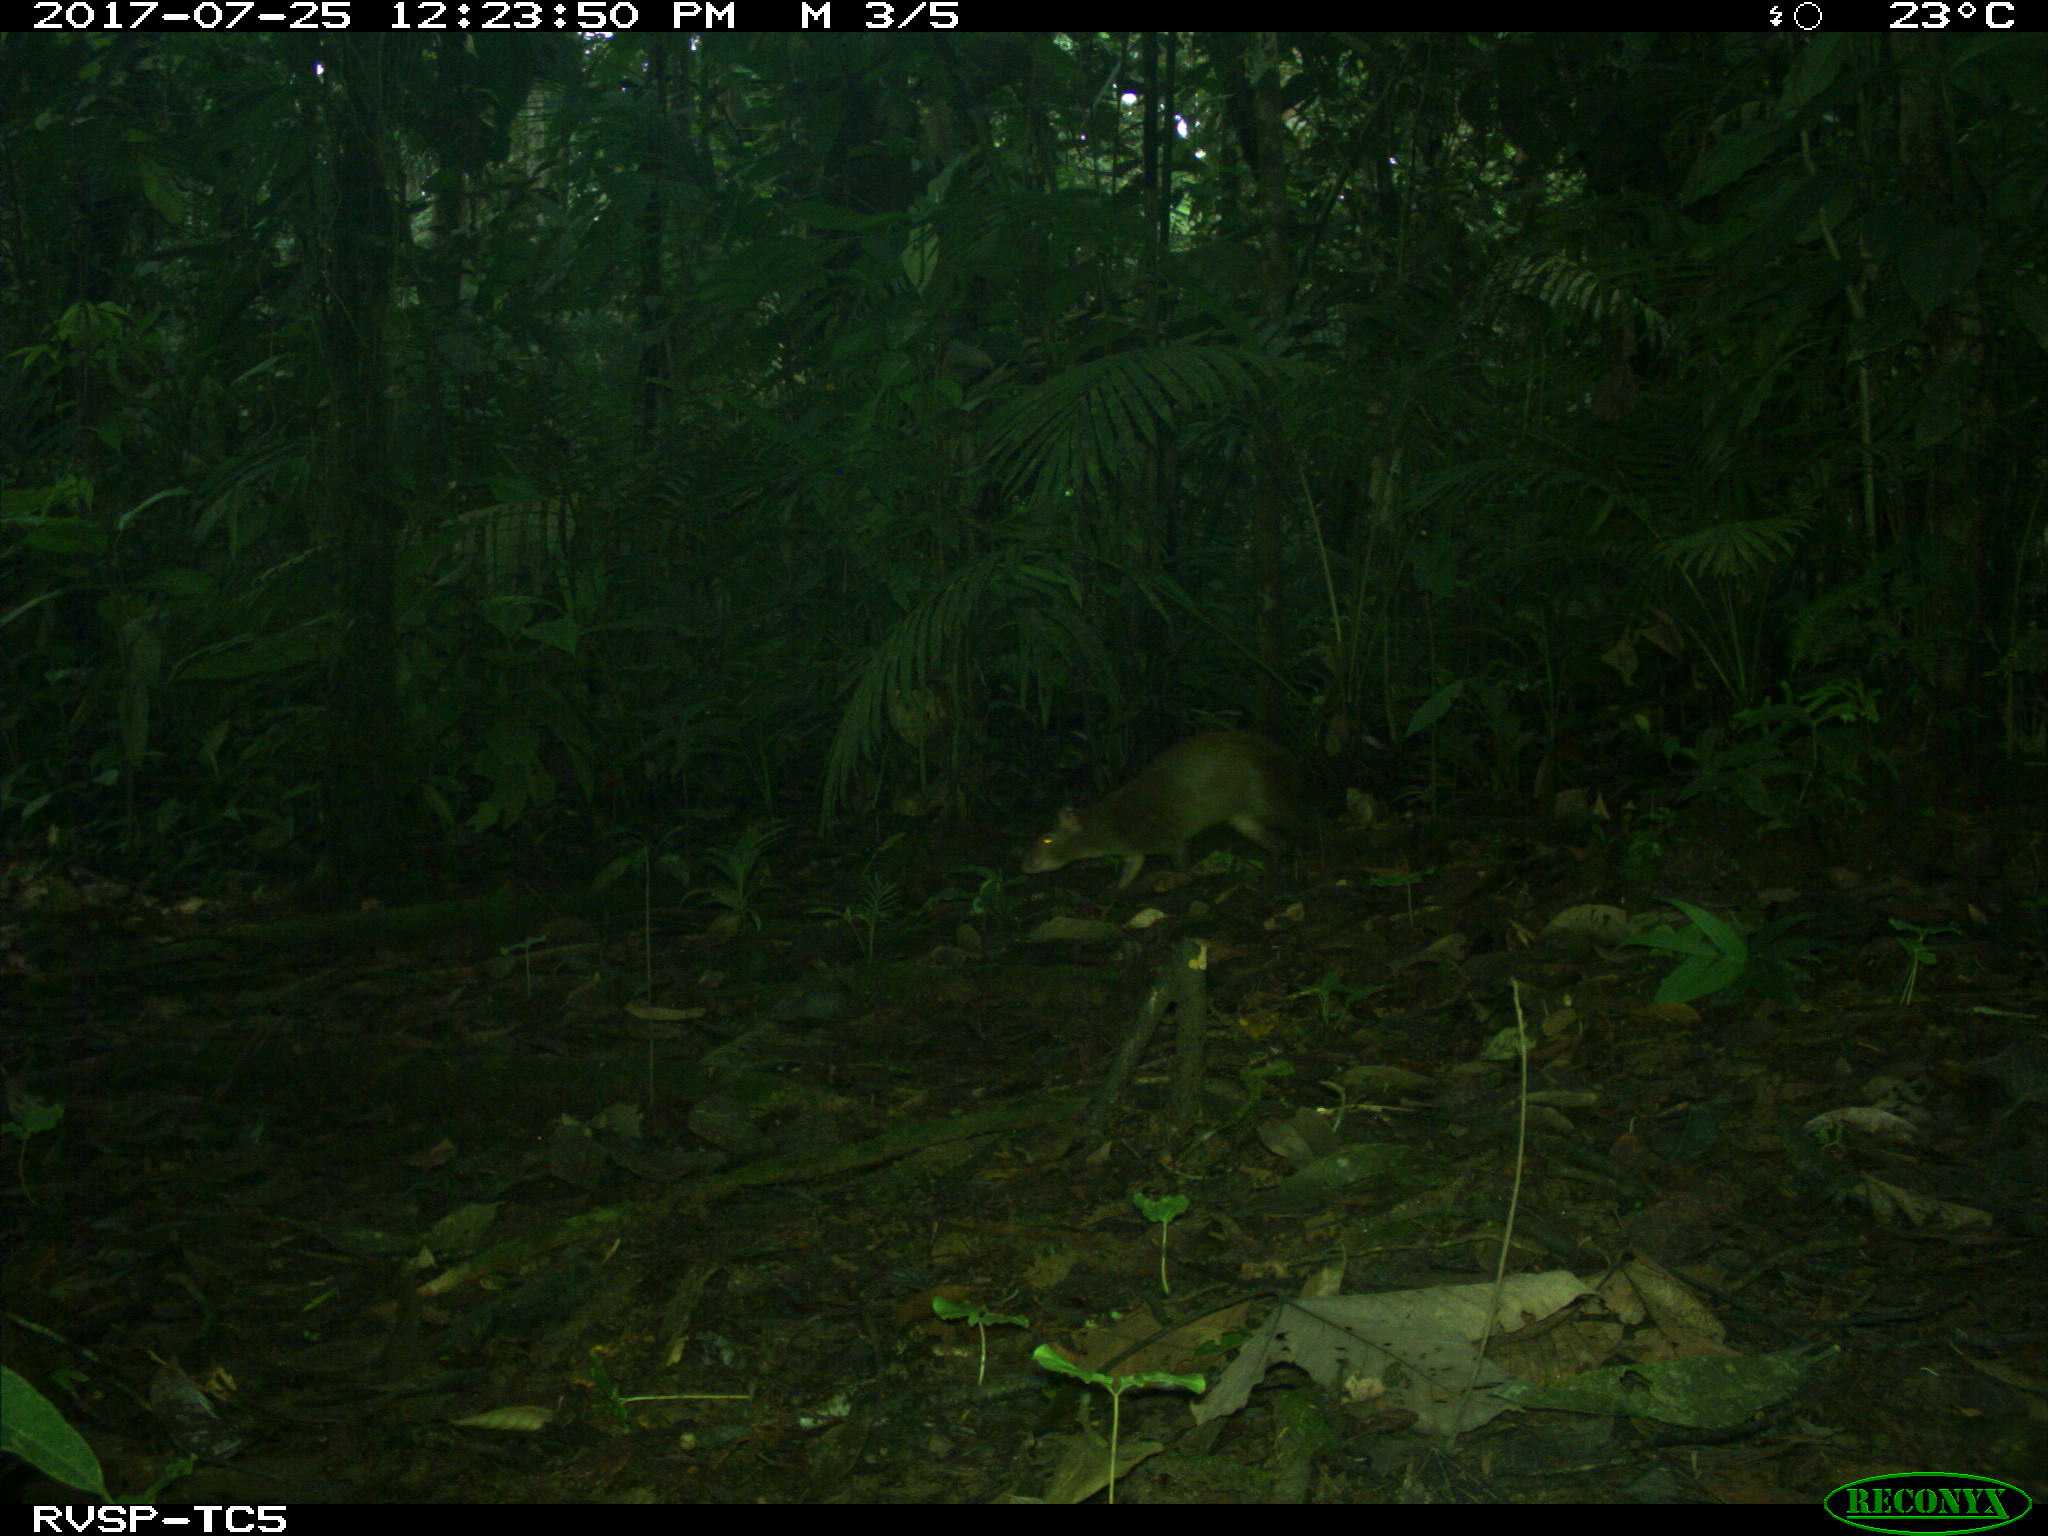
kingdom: Animalia
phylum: Chordata
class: Mammalia
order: Rodentia
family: Dasyproctidae
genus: Dasyprocta
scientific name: Dasyprocta punctata
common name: Central american agouti
